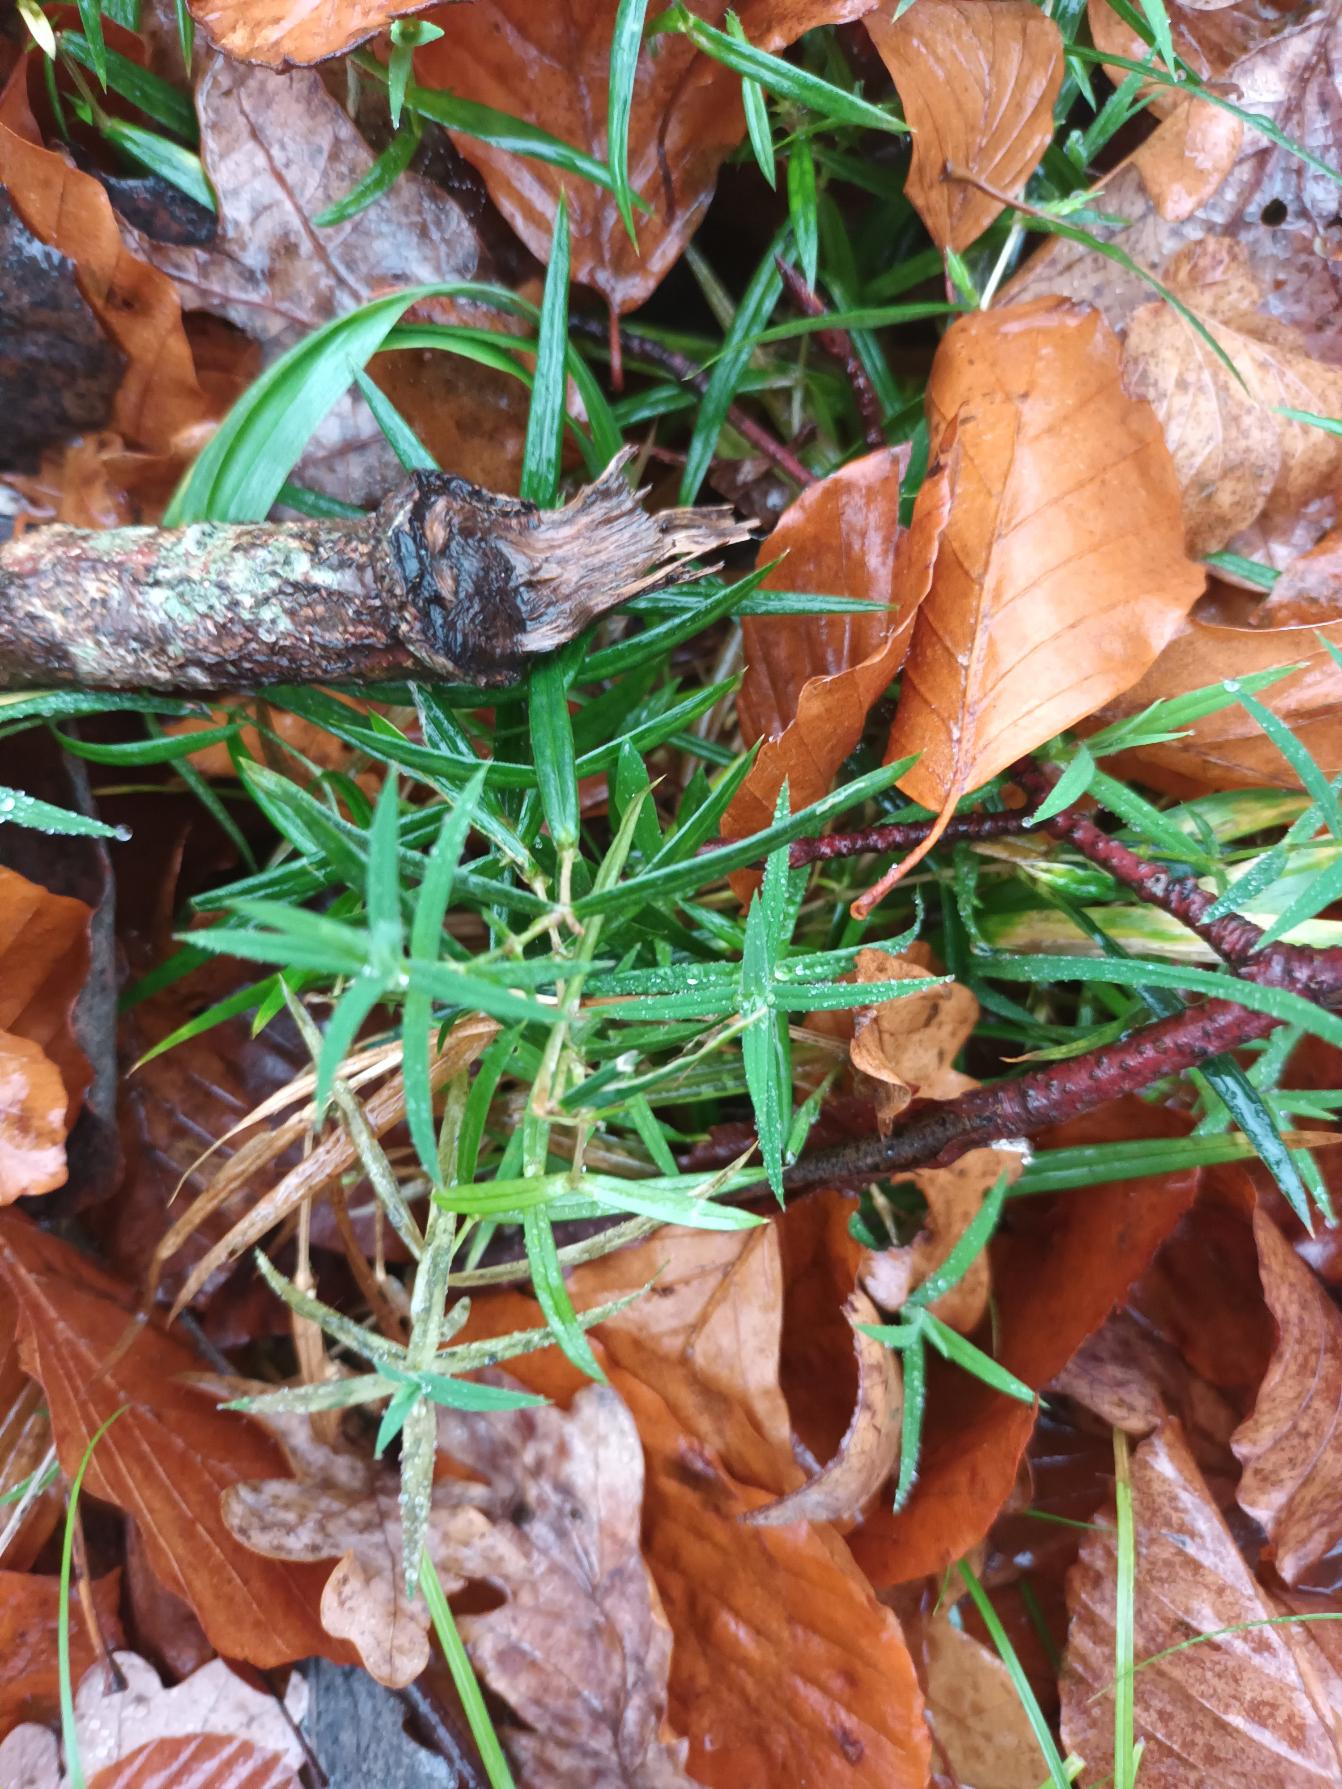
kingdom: Plantae
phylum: Tracheophyta
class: Magnoliopsida
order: Caryophyllales
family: Caryophyllaceae
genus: Rabelera
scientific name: Rabelera holostea
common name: Stor fladstjerne
